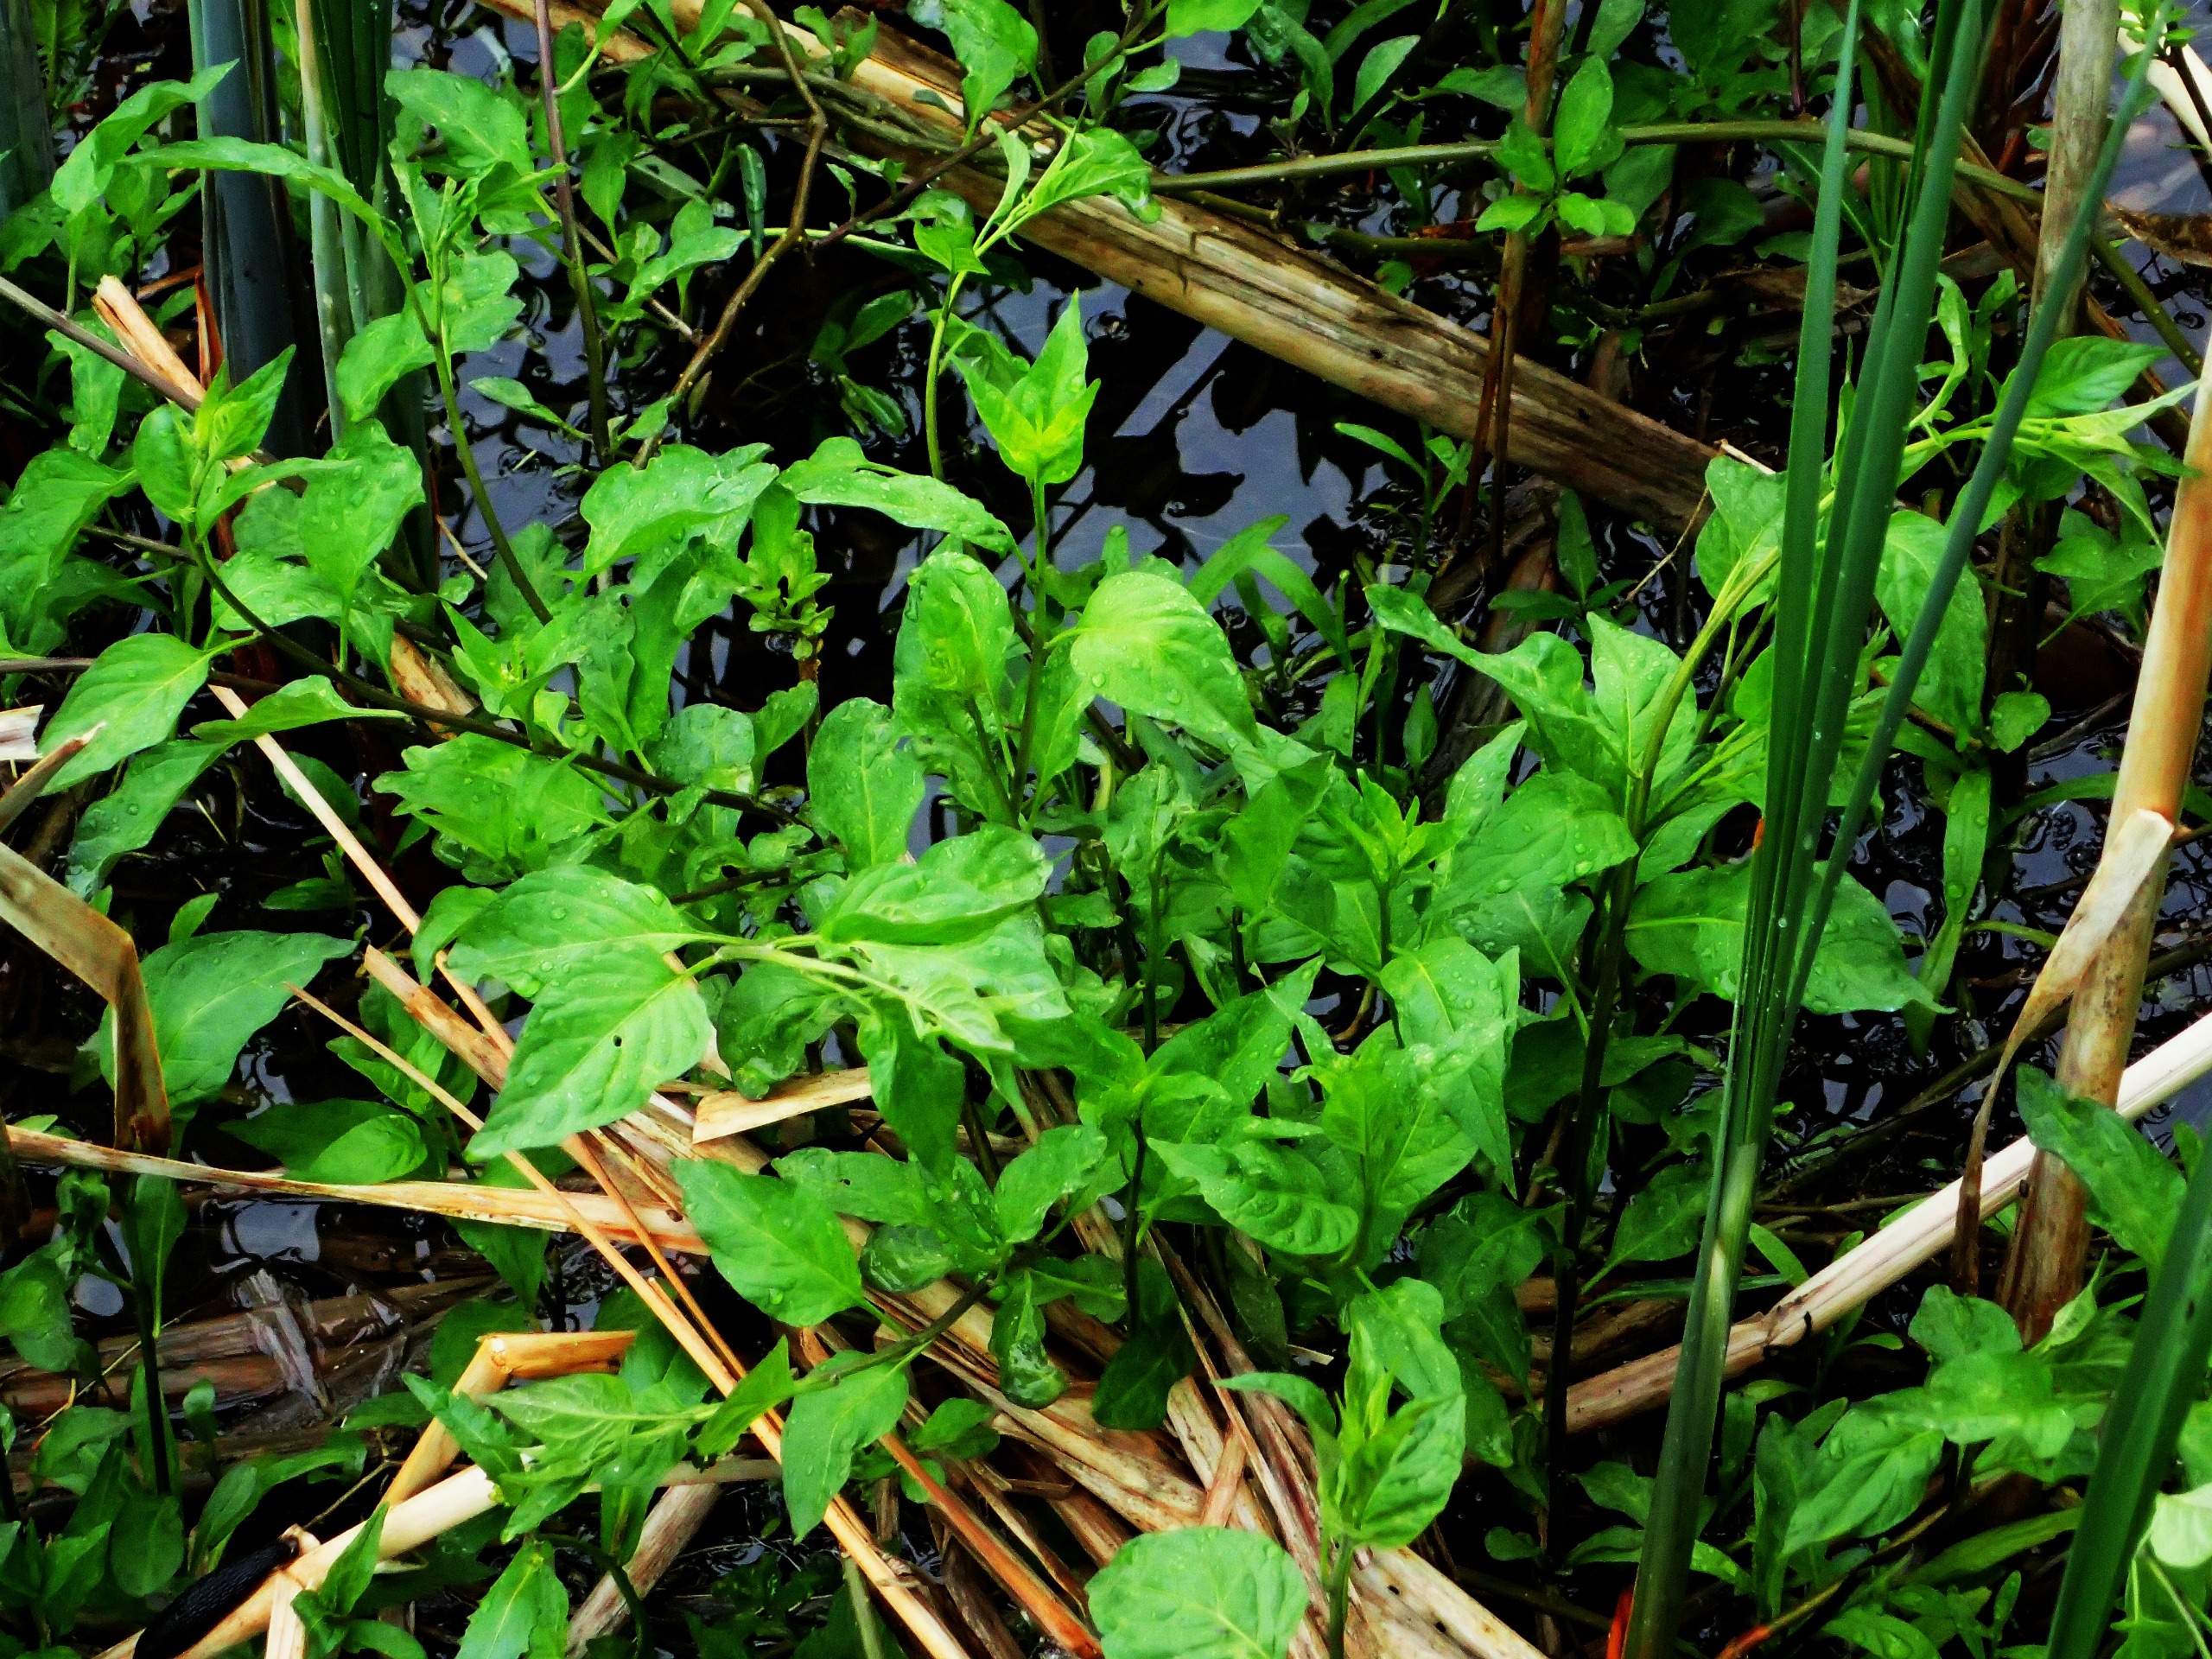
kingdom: Plantae
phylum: Tracheophyta
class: Magnoliopsida
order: Solanales
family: Solanaceae
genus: Solanum
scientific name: Solanum dulcamara
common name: Bittersød natskygge
